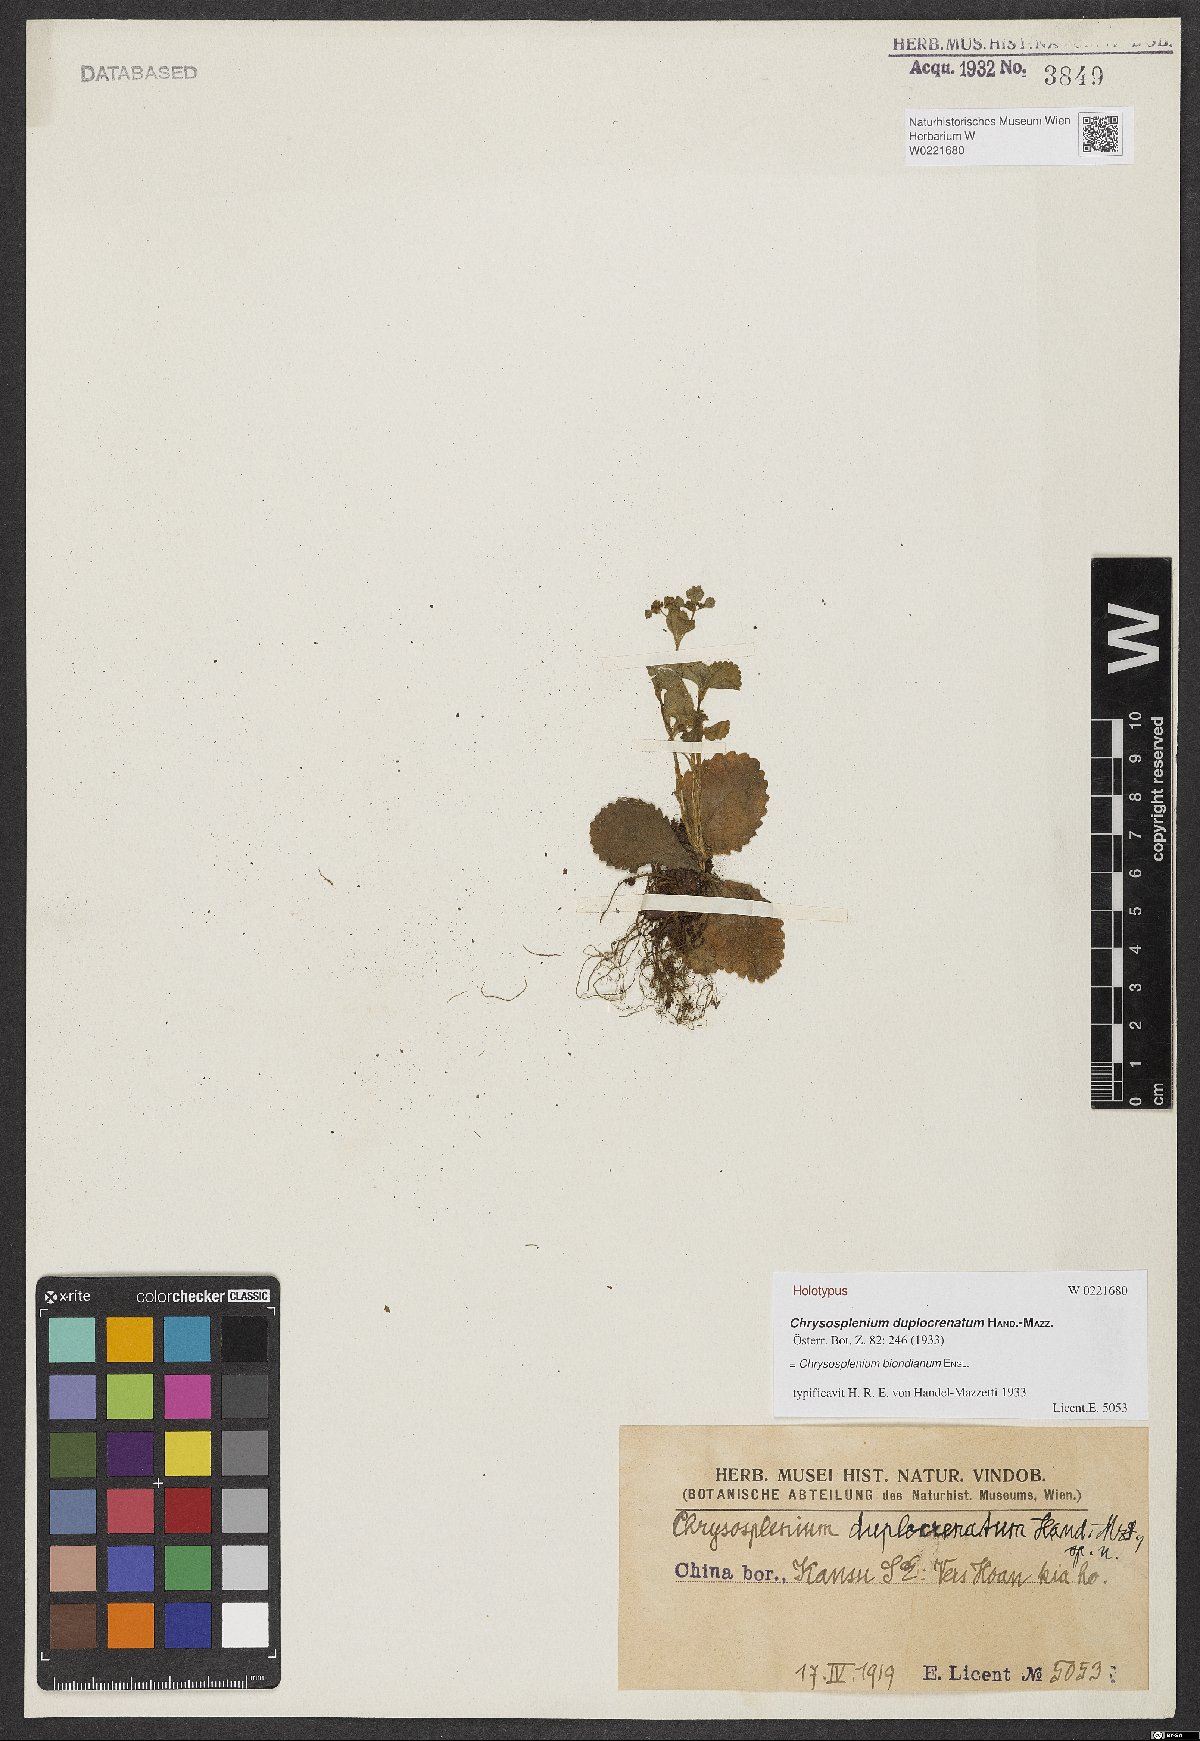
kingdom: Plantae
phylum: Tracheophyta
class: Magnoliopsida
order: Saxifragales
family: Saxifragaceae
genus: Chrysosplenium
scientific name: Chrysosplenium biondianum
